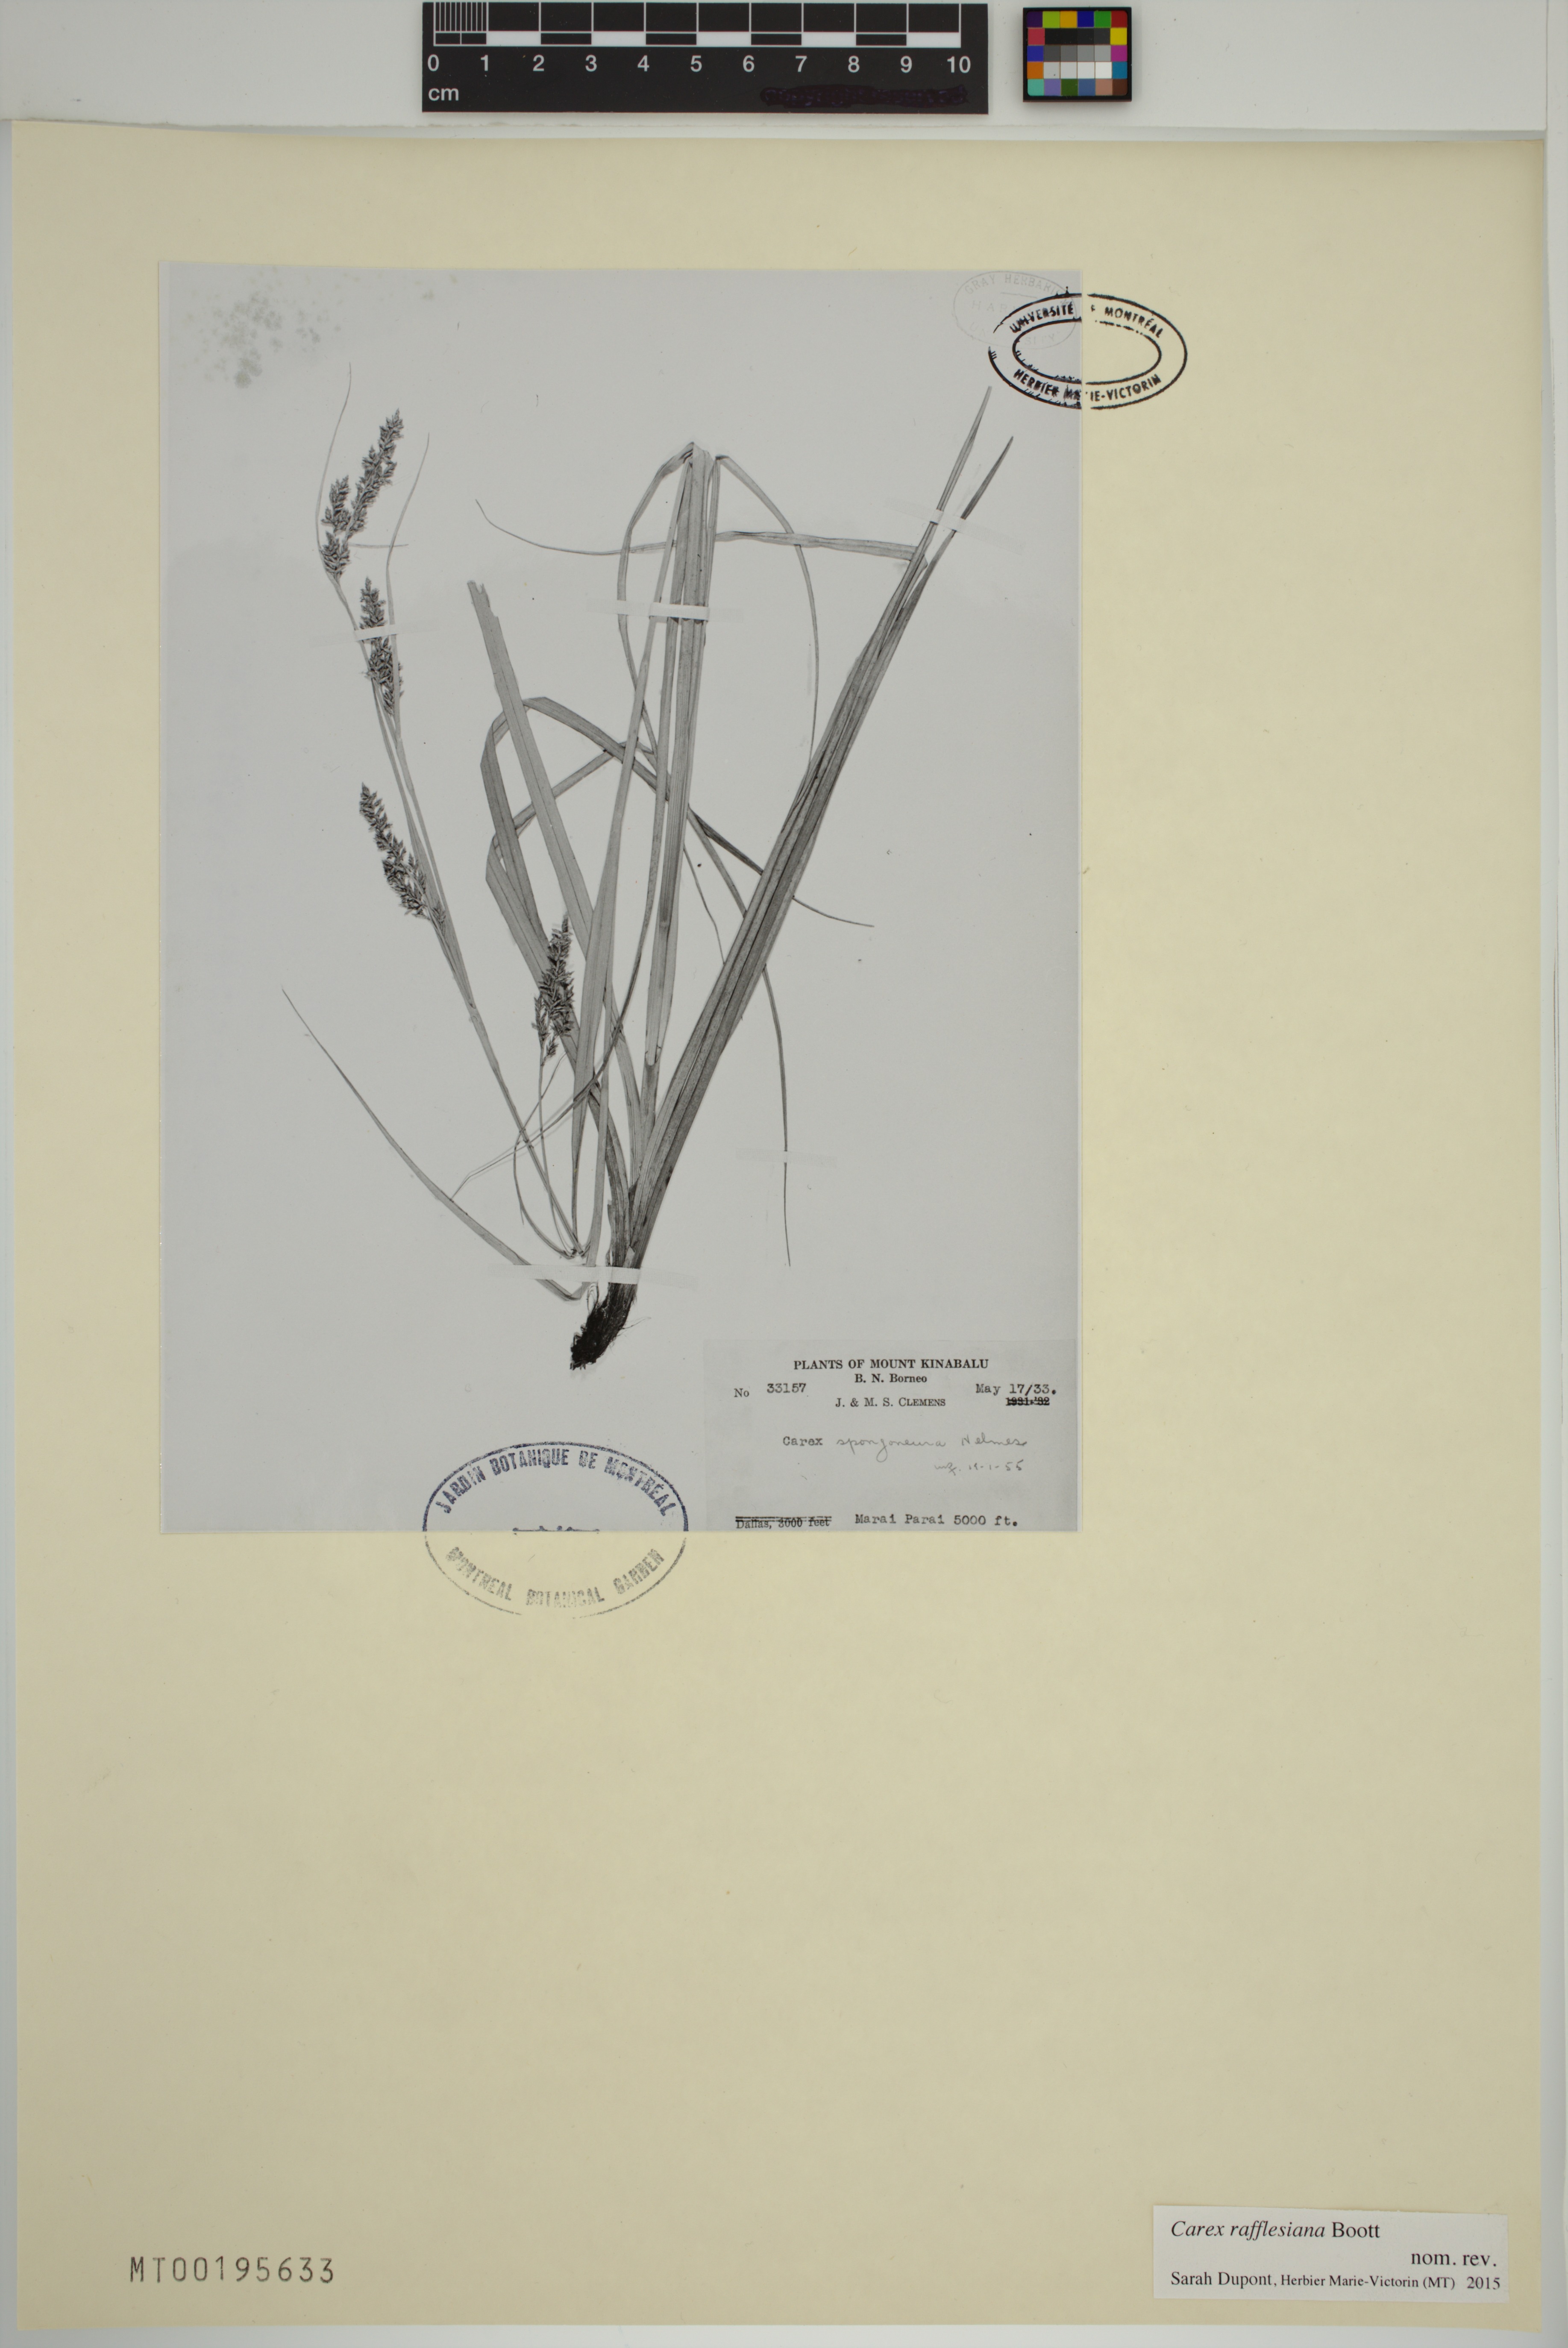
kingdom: Plantae
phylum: Tracheophyta
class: Liliopsida
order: Poales
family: Cyperaceae
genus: Carex
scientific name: Carex rafflesiana
